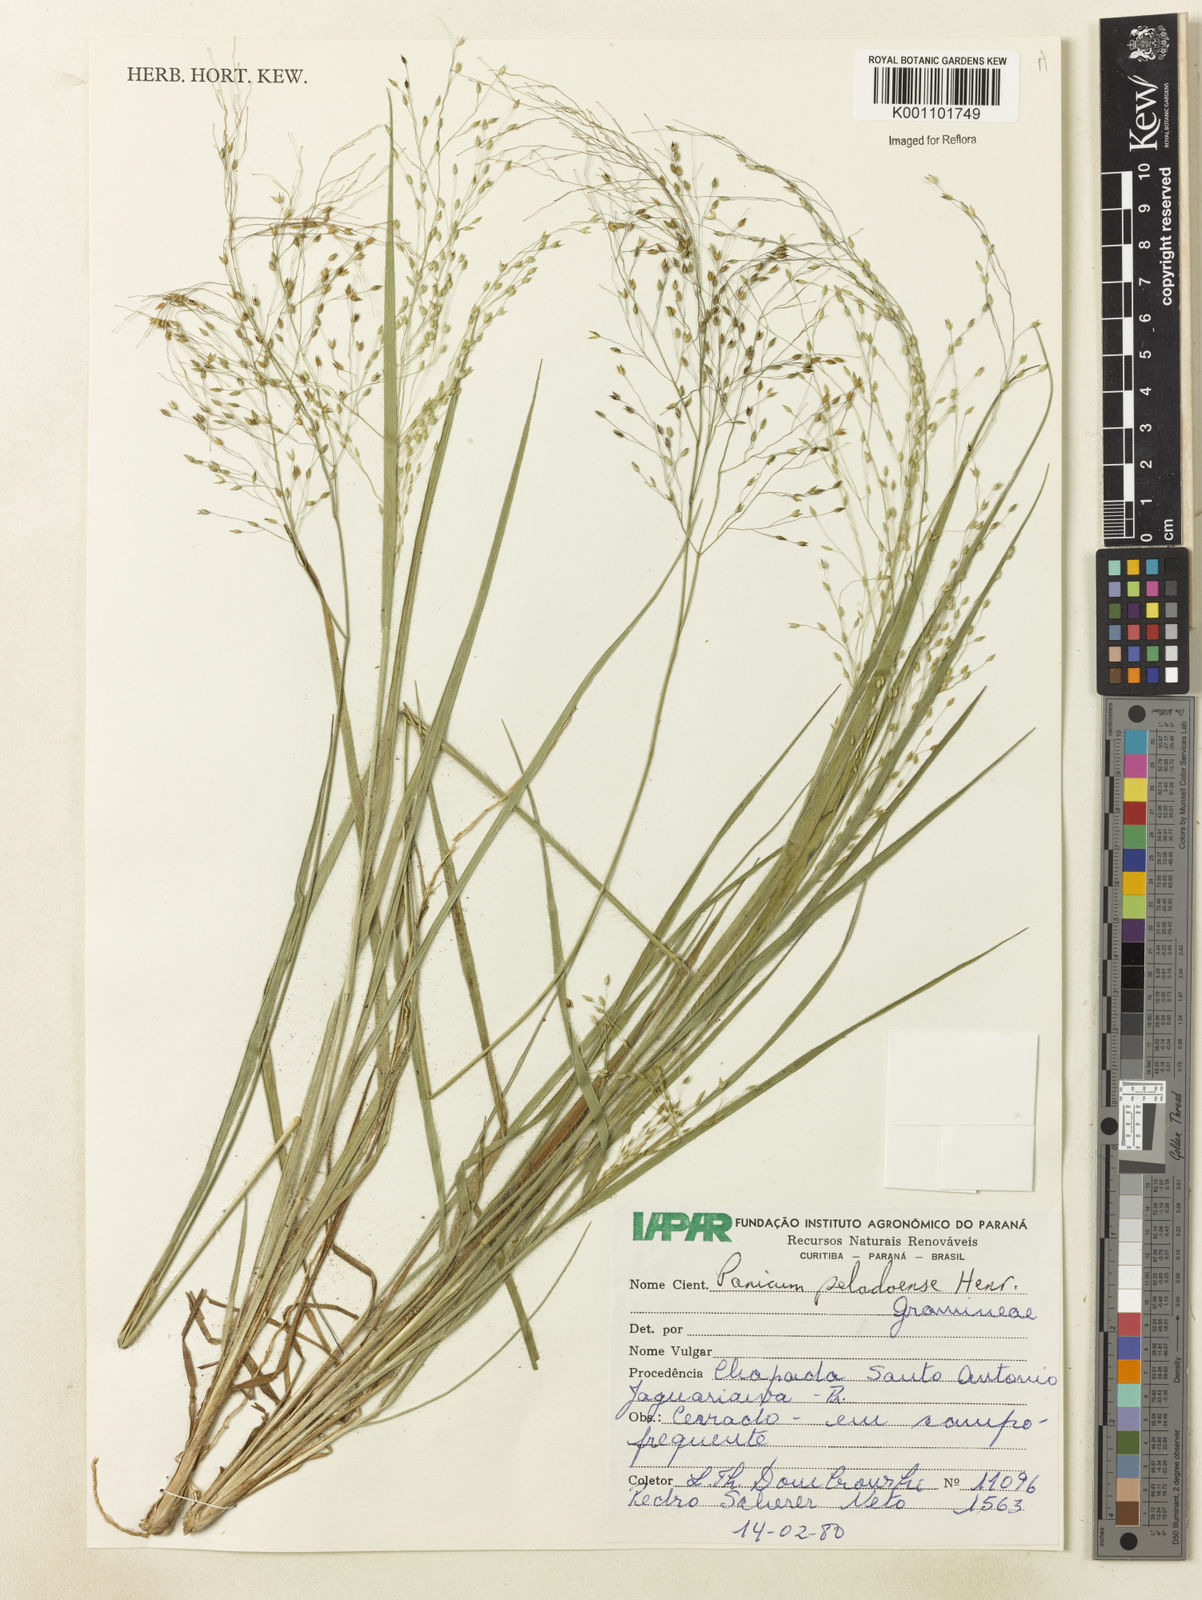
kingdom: Plantae
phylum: Tracheophyta
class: Liliopsida
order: Poales
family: Poaceae
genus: Panicum
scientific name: Panicum peladoense
